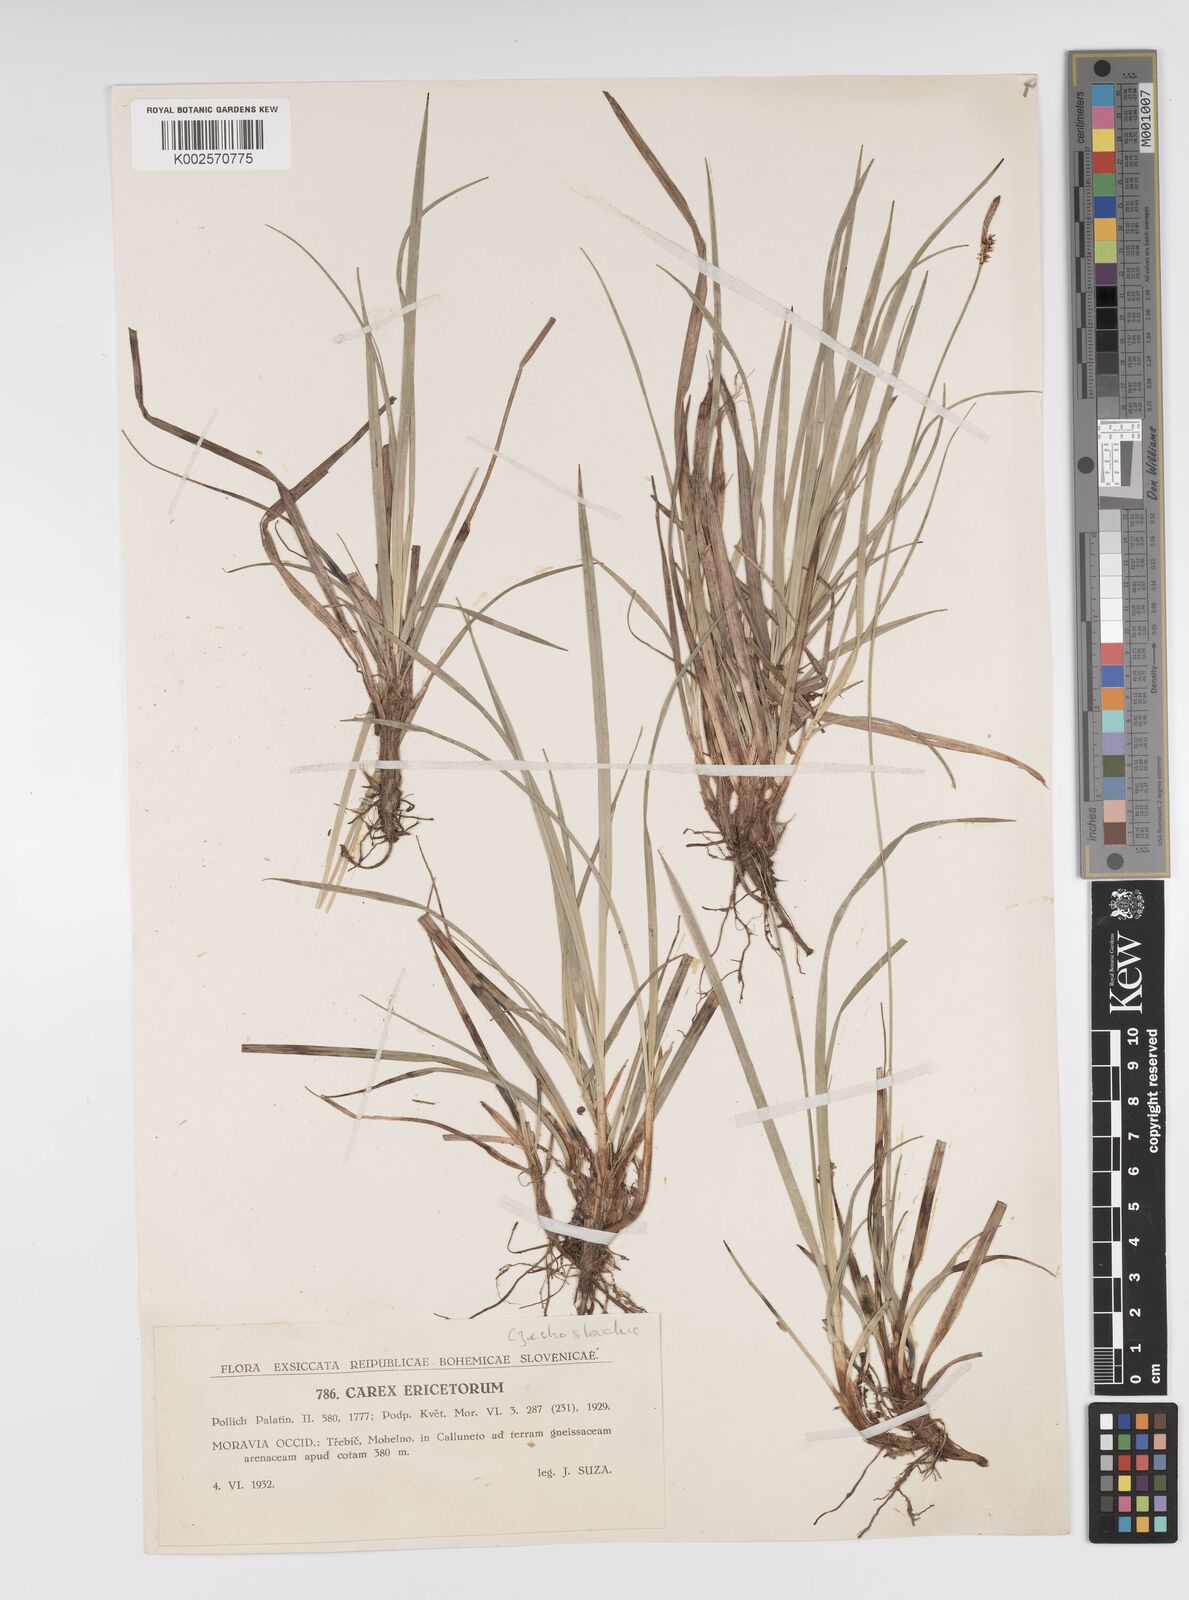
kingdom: Plantae
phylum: Tracheophyta
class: Liliopsida
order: Poales
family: Cyperaceae
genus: Carex
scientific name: Carex ericetorum
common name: Rare spring-sedge
